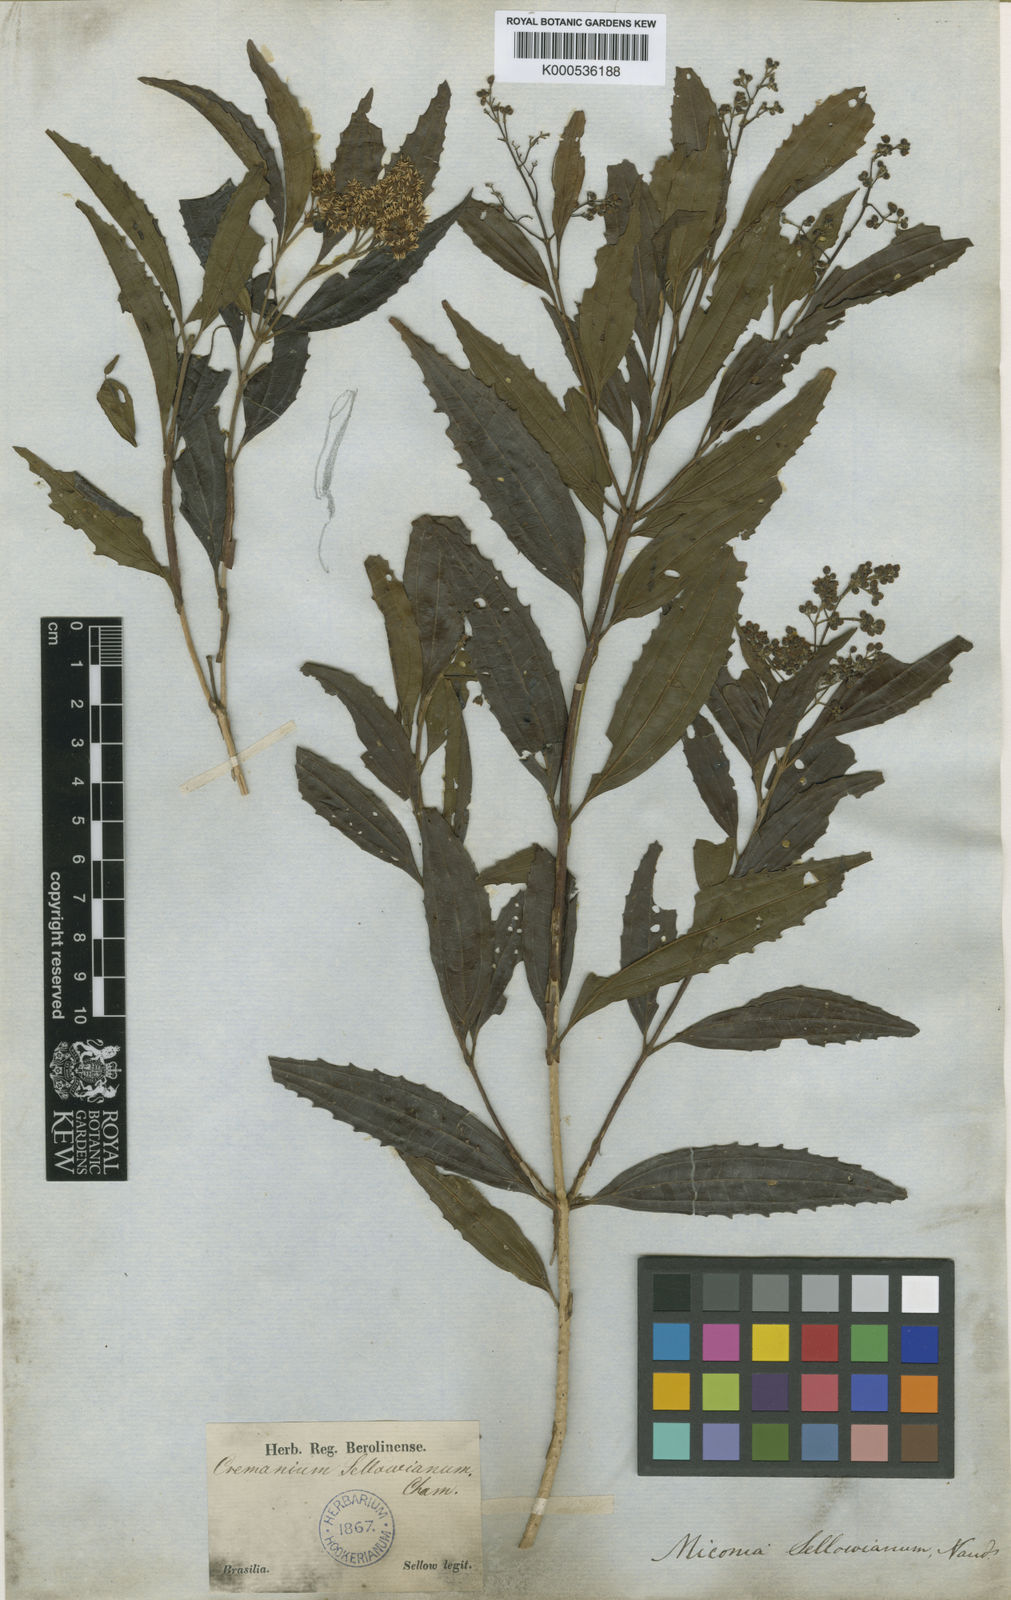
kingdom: Plantae
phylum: Tracheophyta
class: Magnoliopsida
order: Myrtales
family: Melastomataceae
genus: Miconia
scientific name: Miconia sellowiana
